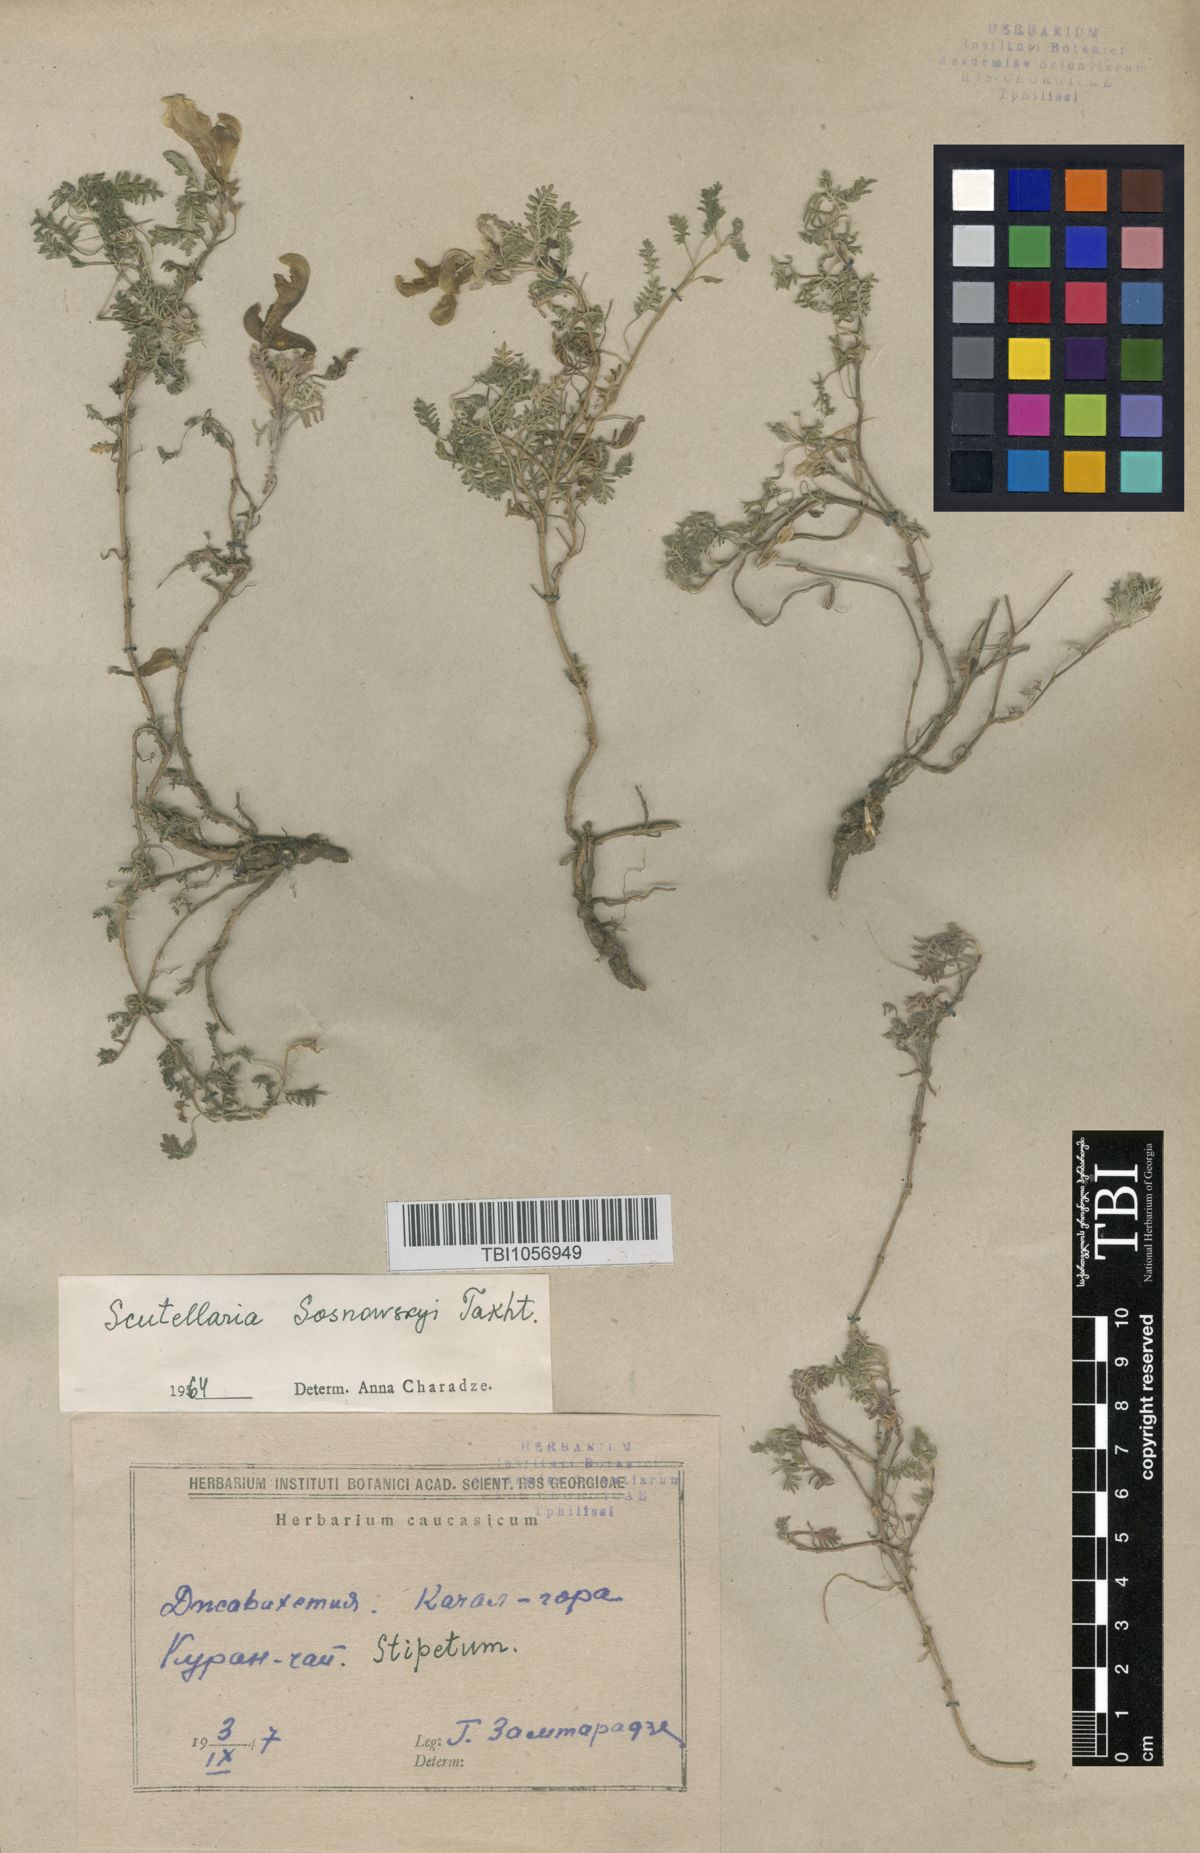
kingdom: Plantae
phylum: Tracheophyta
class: Magnoliopsida
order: Lamiales
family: Lamiaceae
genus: Scutellaria
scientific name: Scutellaria sosnowskyi
